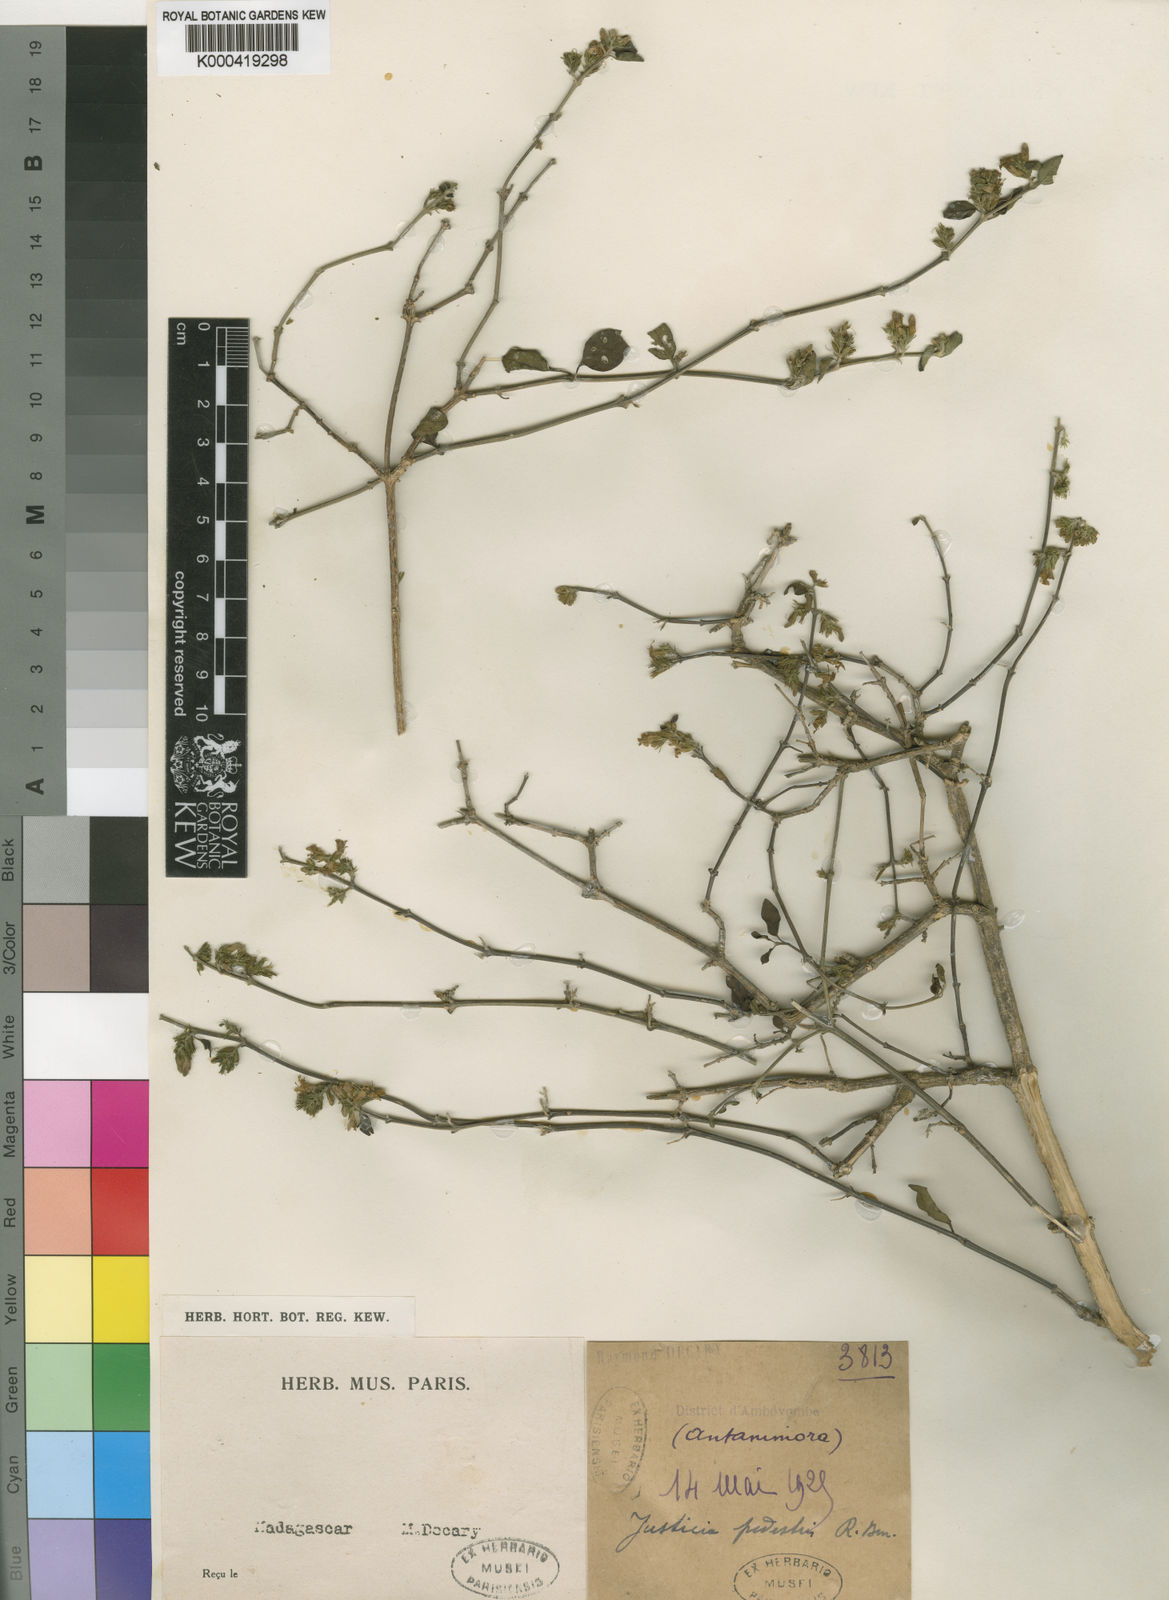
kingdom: Plantae
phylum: Tracheophyta
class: Magnoliopsida
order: Lamiales
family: Acanthaceae
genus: Justicia
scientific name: Justicia pedestris
